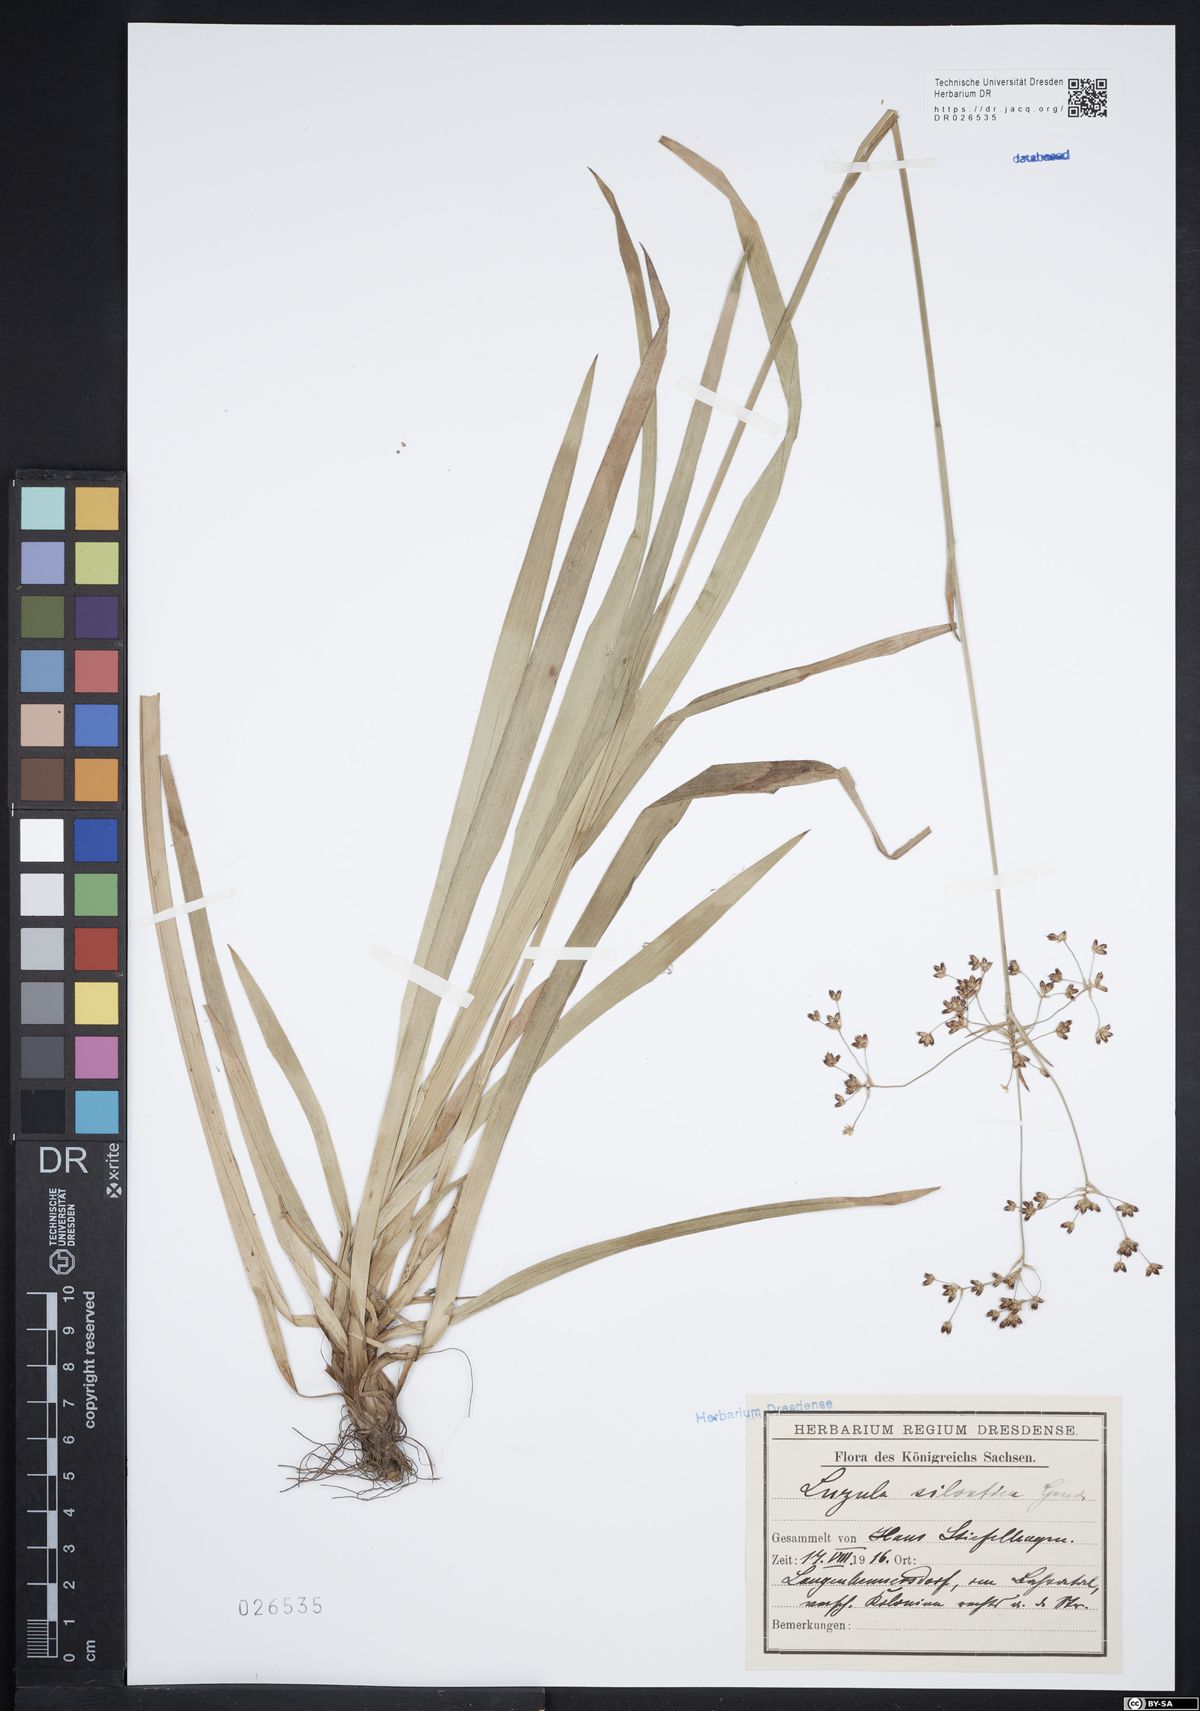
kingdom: Plantae
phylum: Tracheophyta
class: Liliopsida
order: Poales
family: Juncaceae
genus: Luzula
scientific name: Luzula sylvatica
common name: Great wood-rush
